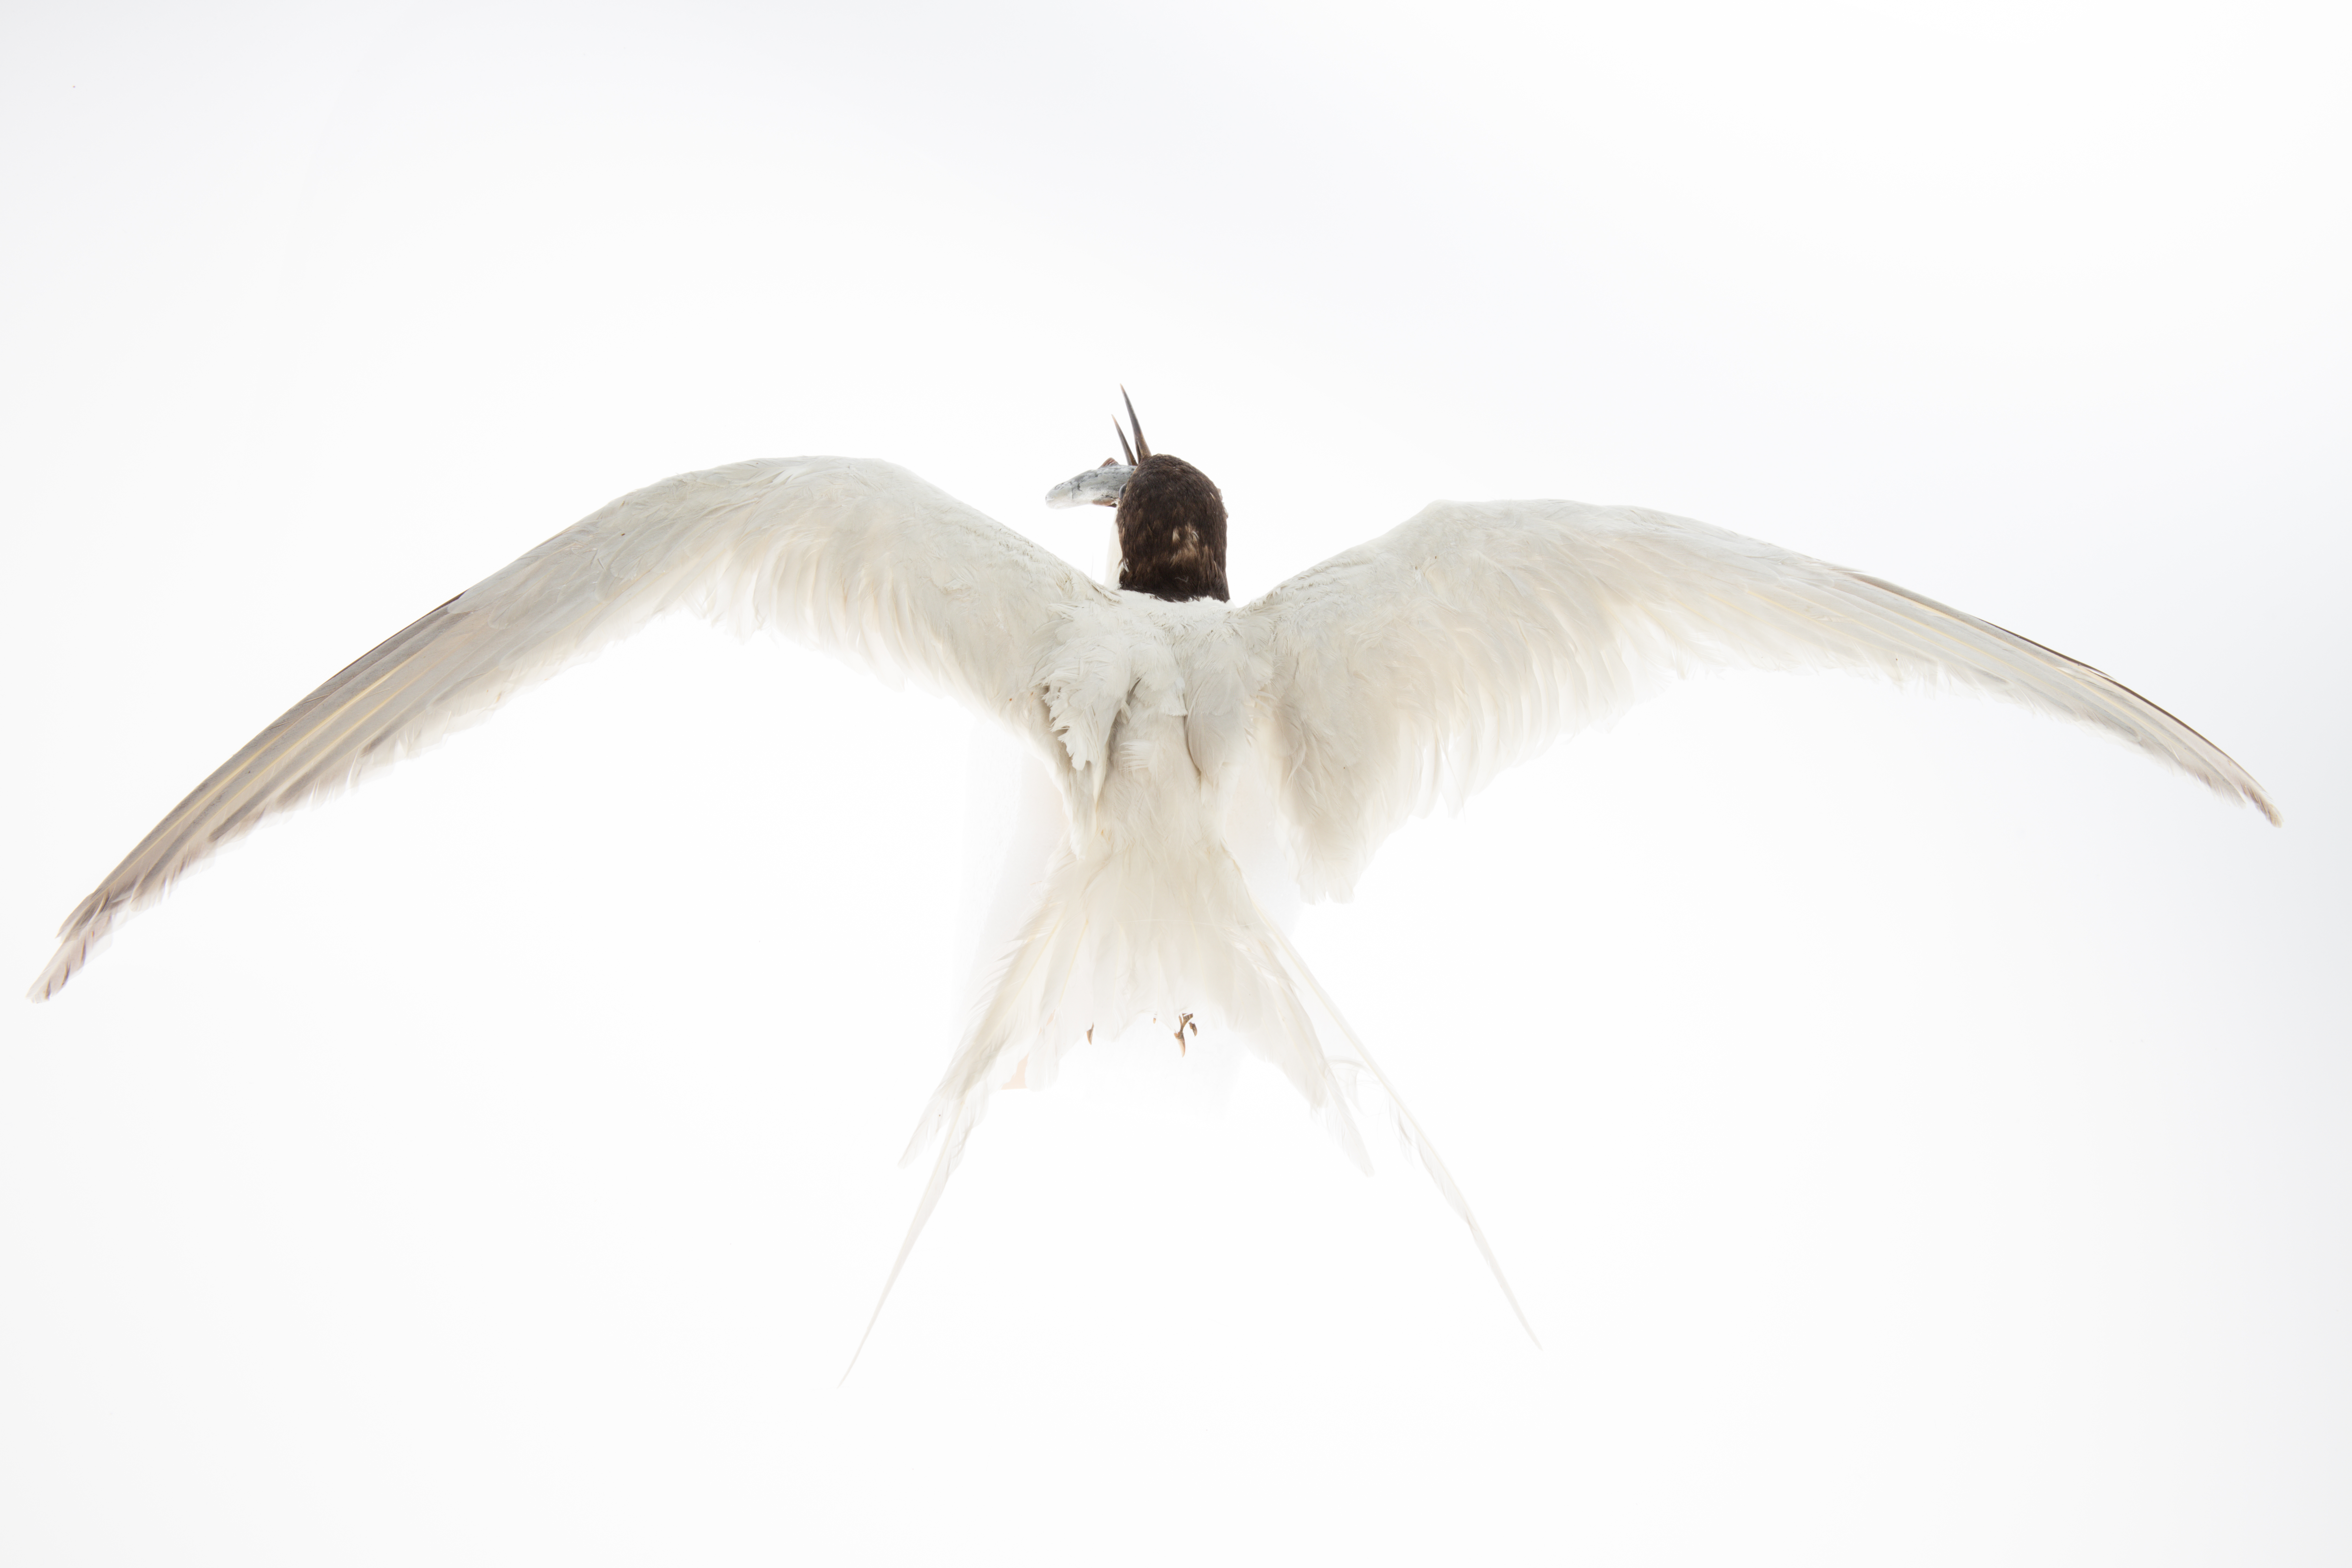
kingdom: Animalia
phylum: Chordata
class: Aves
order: Charadriiformes
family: Laridae
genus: Sterna
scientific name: Sterna striata
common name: White-fronted tern
